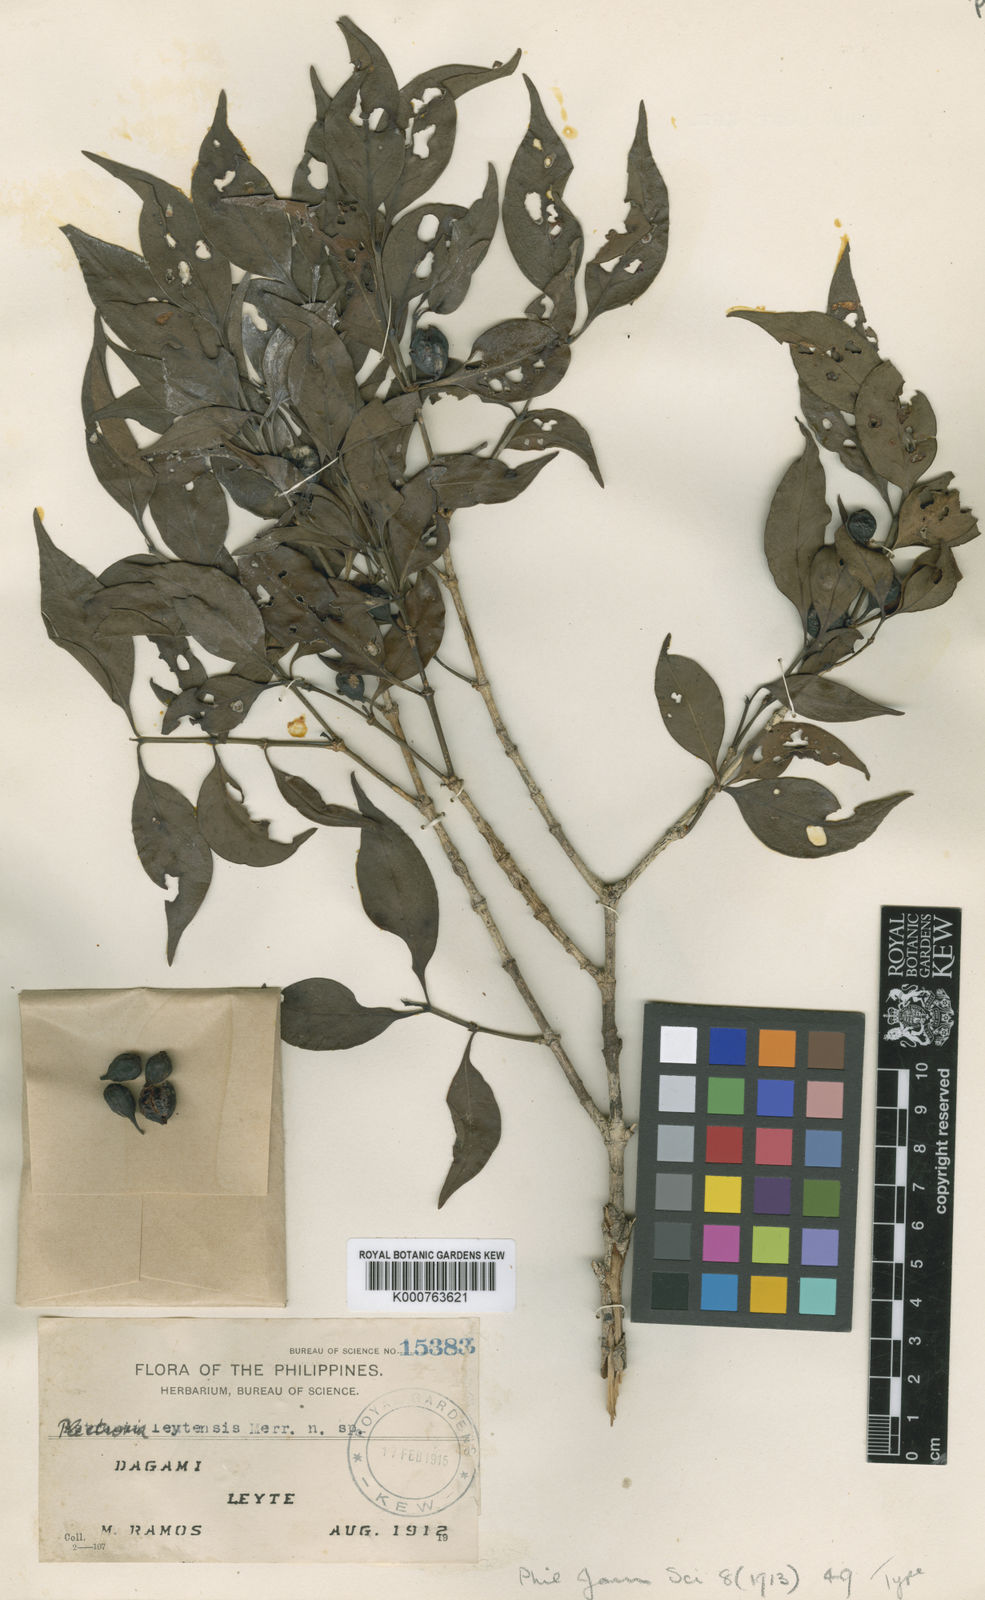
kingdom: Plantae
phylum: Tracheophyta
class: Magnoliopsida
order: Gentianales
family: Rubiaceae
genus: Dibridsonia
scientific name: Dibridsonia conferta
